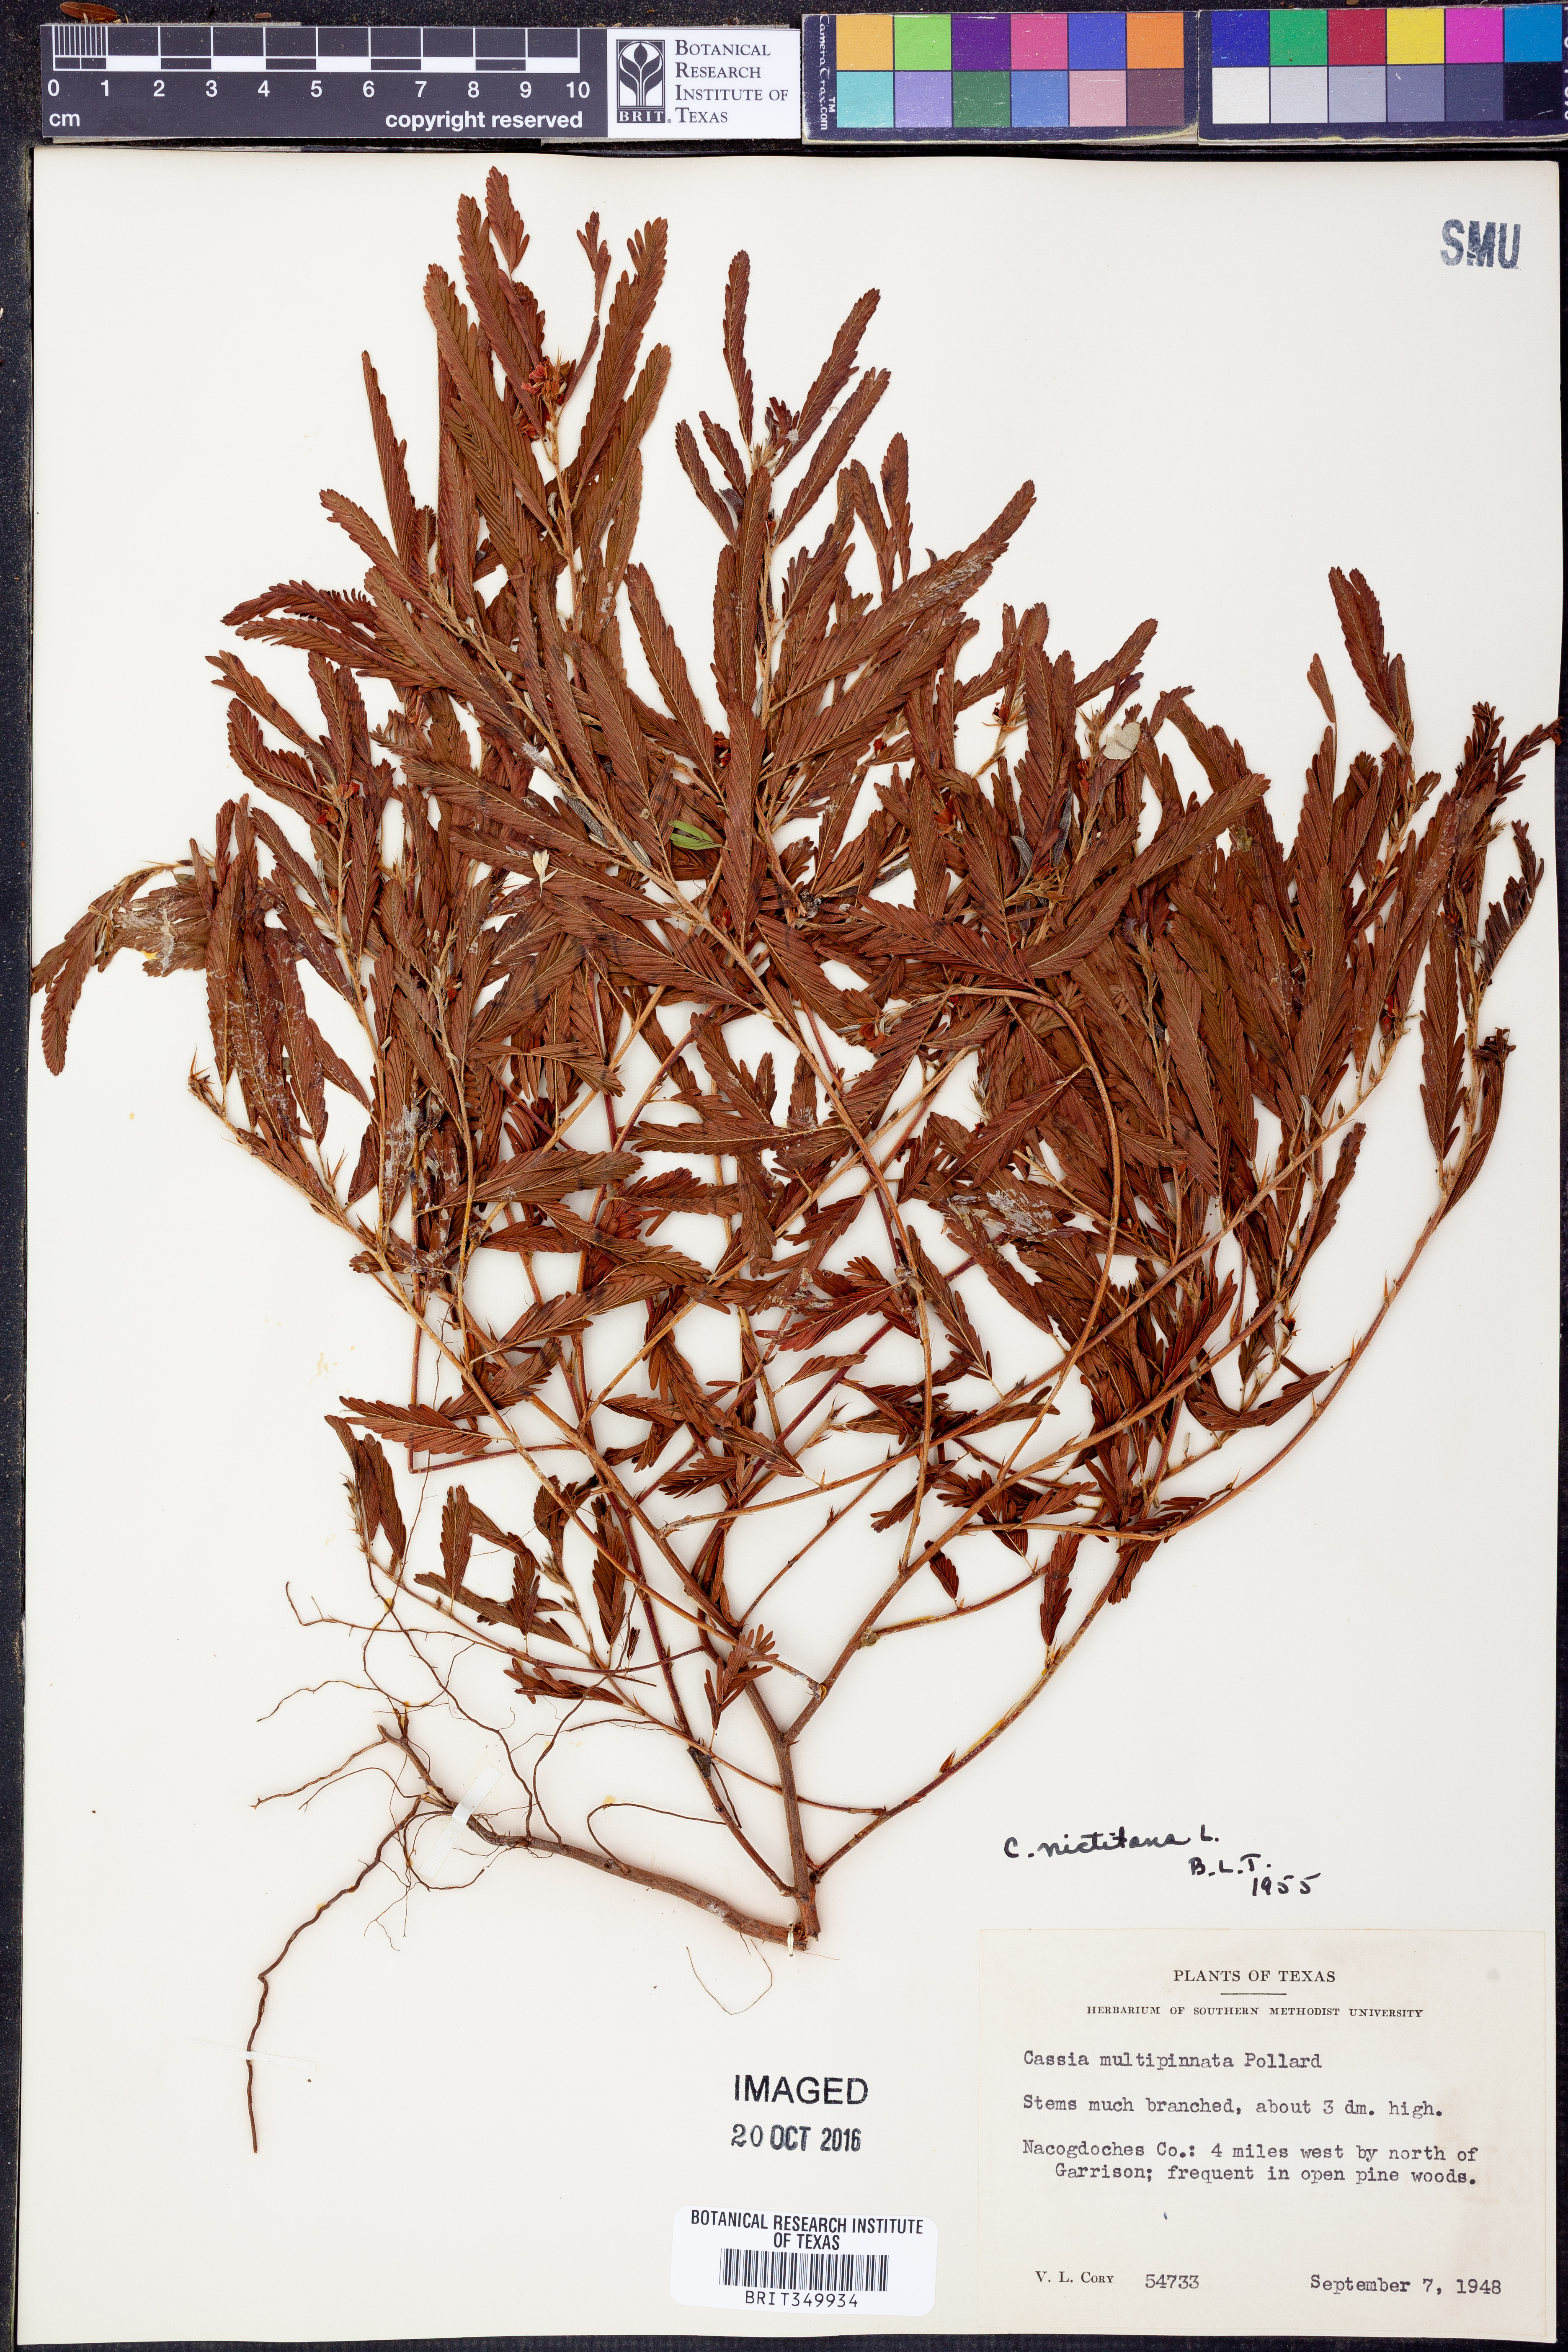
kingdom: Plantae
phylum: Tracheophyta
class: Magnoliopsida
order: Fabales
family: Fabaceae
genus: Chamaecrista
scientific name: Chamaecrista nictitans
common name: Sensitive cassia
